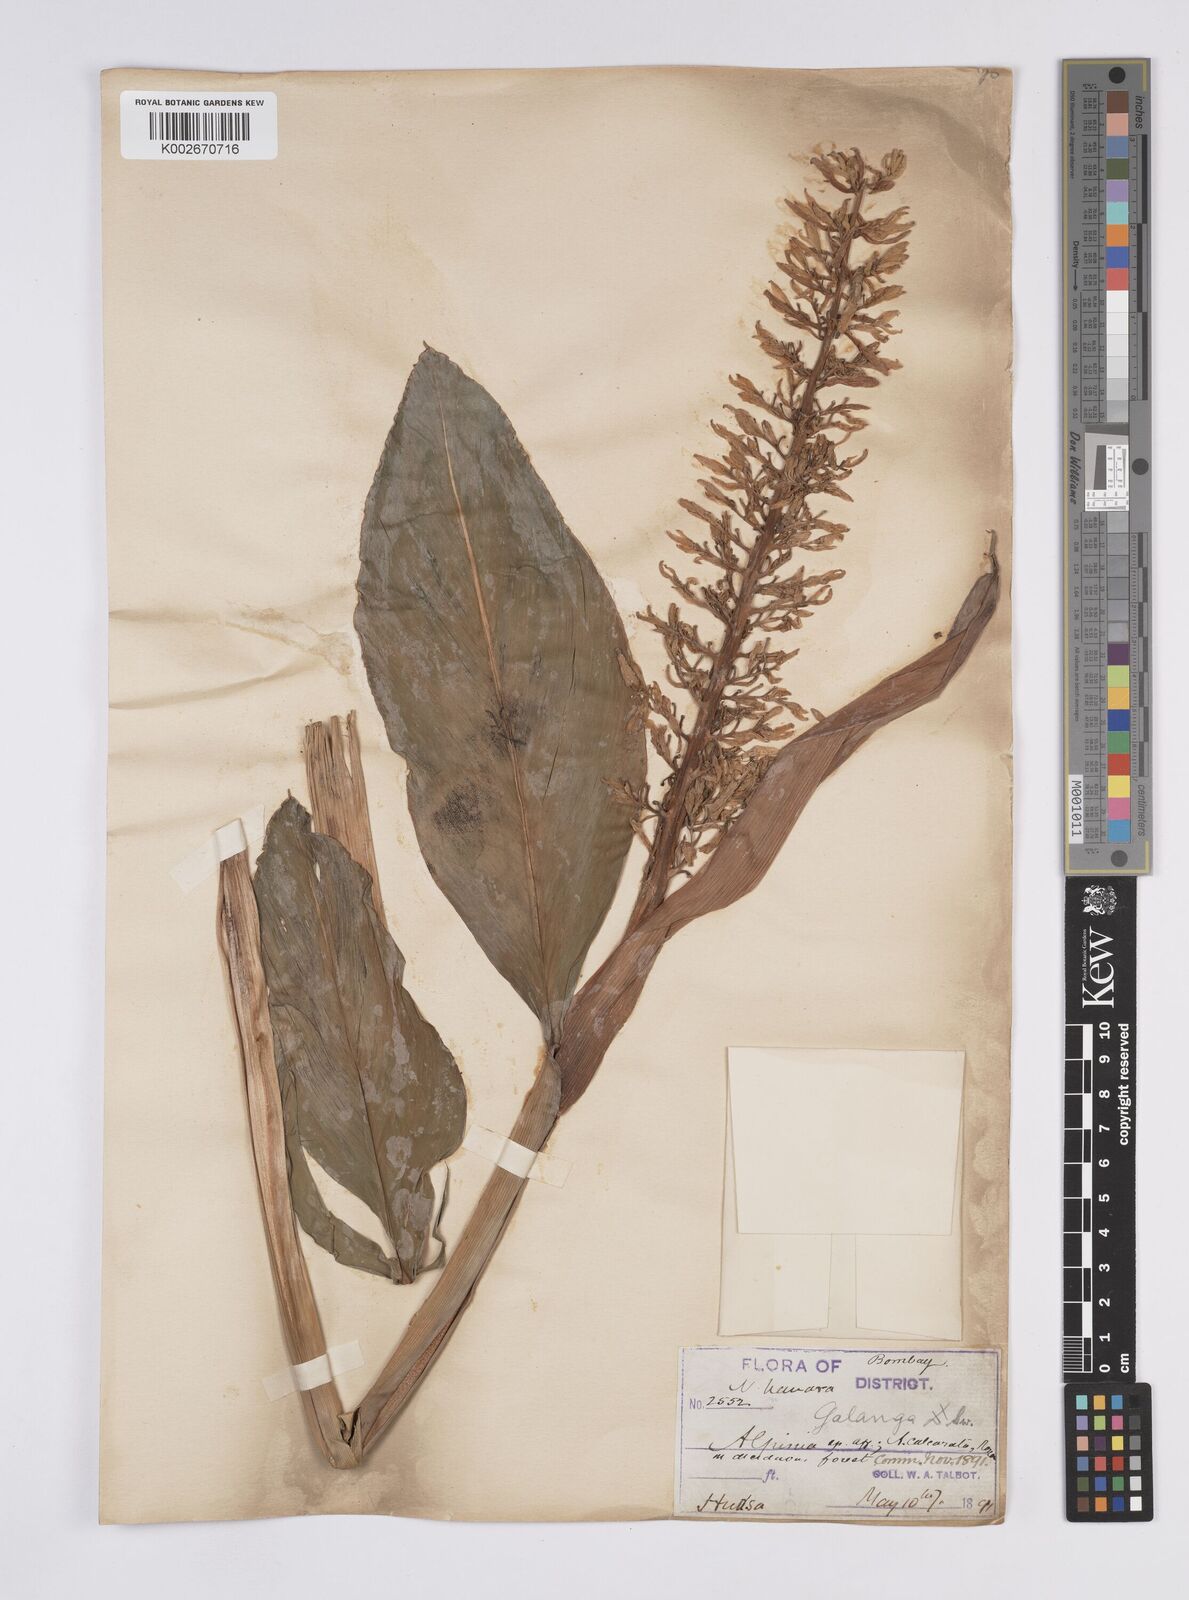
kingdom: Plantae
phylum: Tracheophyta
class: Liliopsida
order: Zingiberales
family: Zingiberaceae
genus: Alpinia
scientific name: Alpinia galanga
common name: Siamese-ginger
